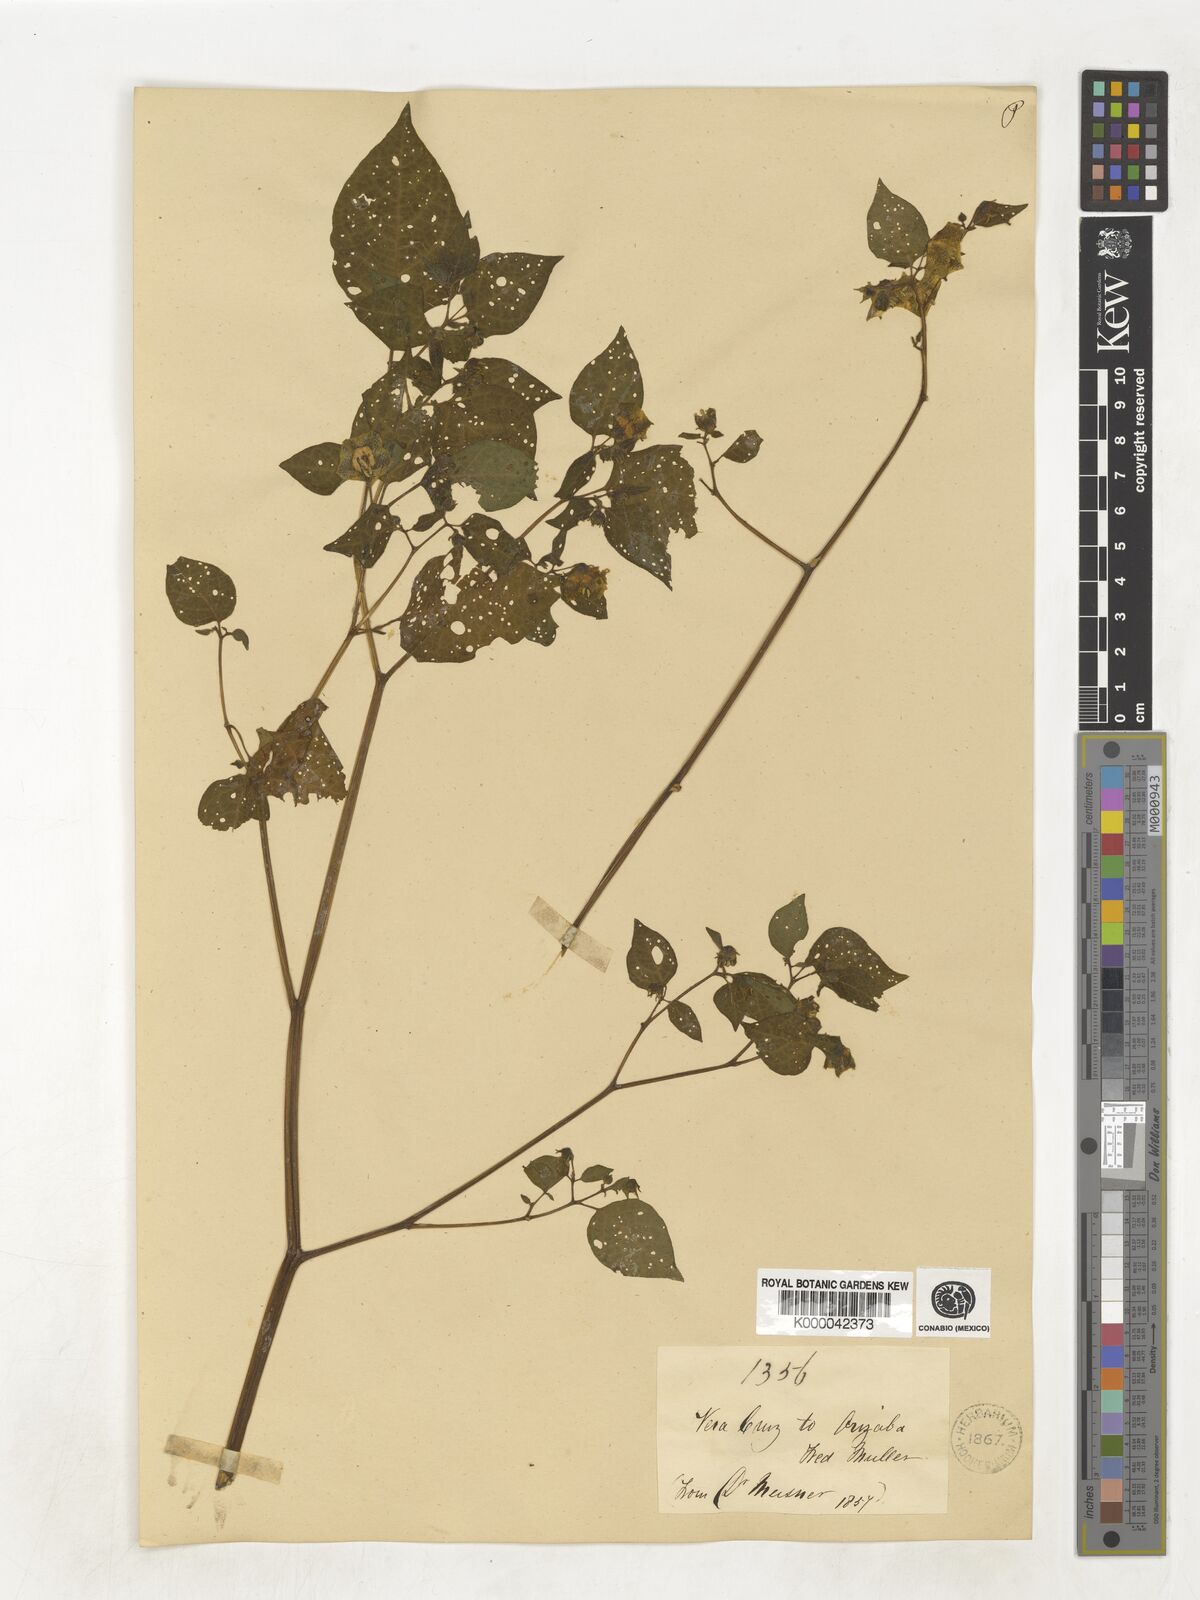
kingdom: Plantae
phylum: Tracheophyta
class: Magnoliopsida
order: Solanales
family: Solanaceae
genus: Physalis
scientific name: Physalis
